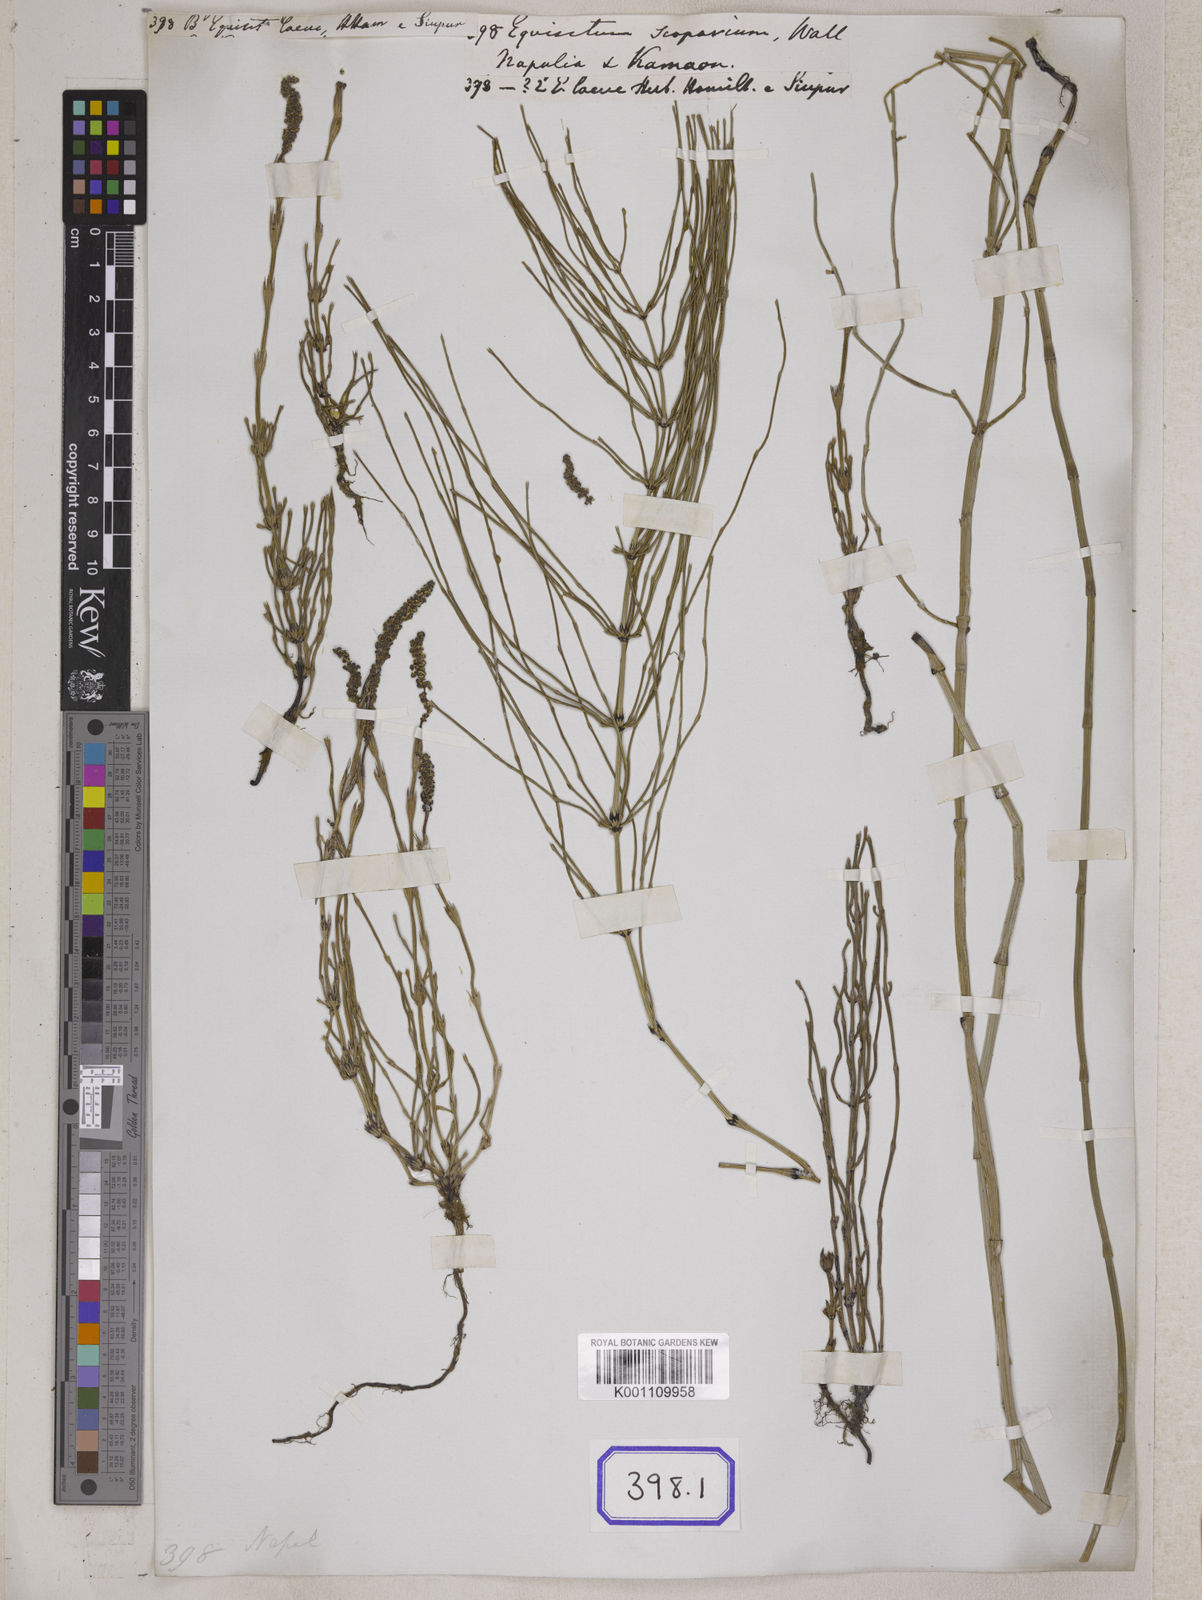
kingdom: Plantae
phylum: Tracheophyta
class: Polypodiopsida
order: Equisetales
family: Equisetaceae
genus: Equisetum
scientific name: Equisetum scoparium
